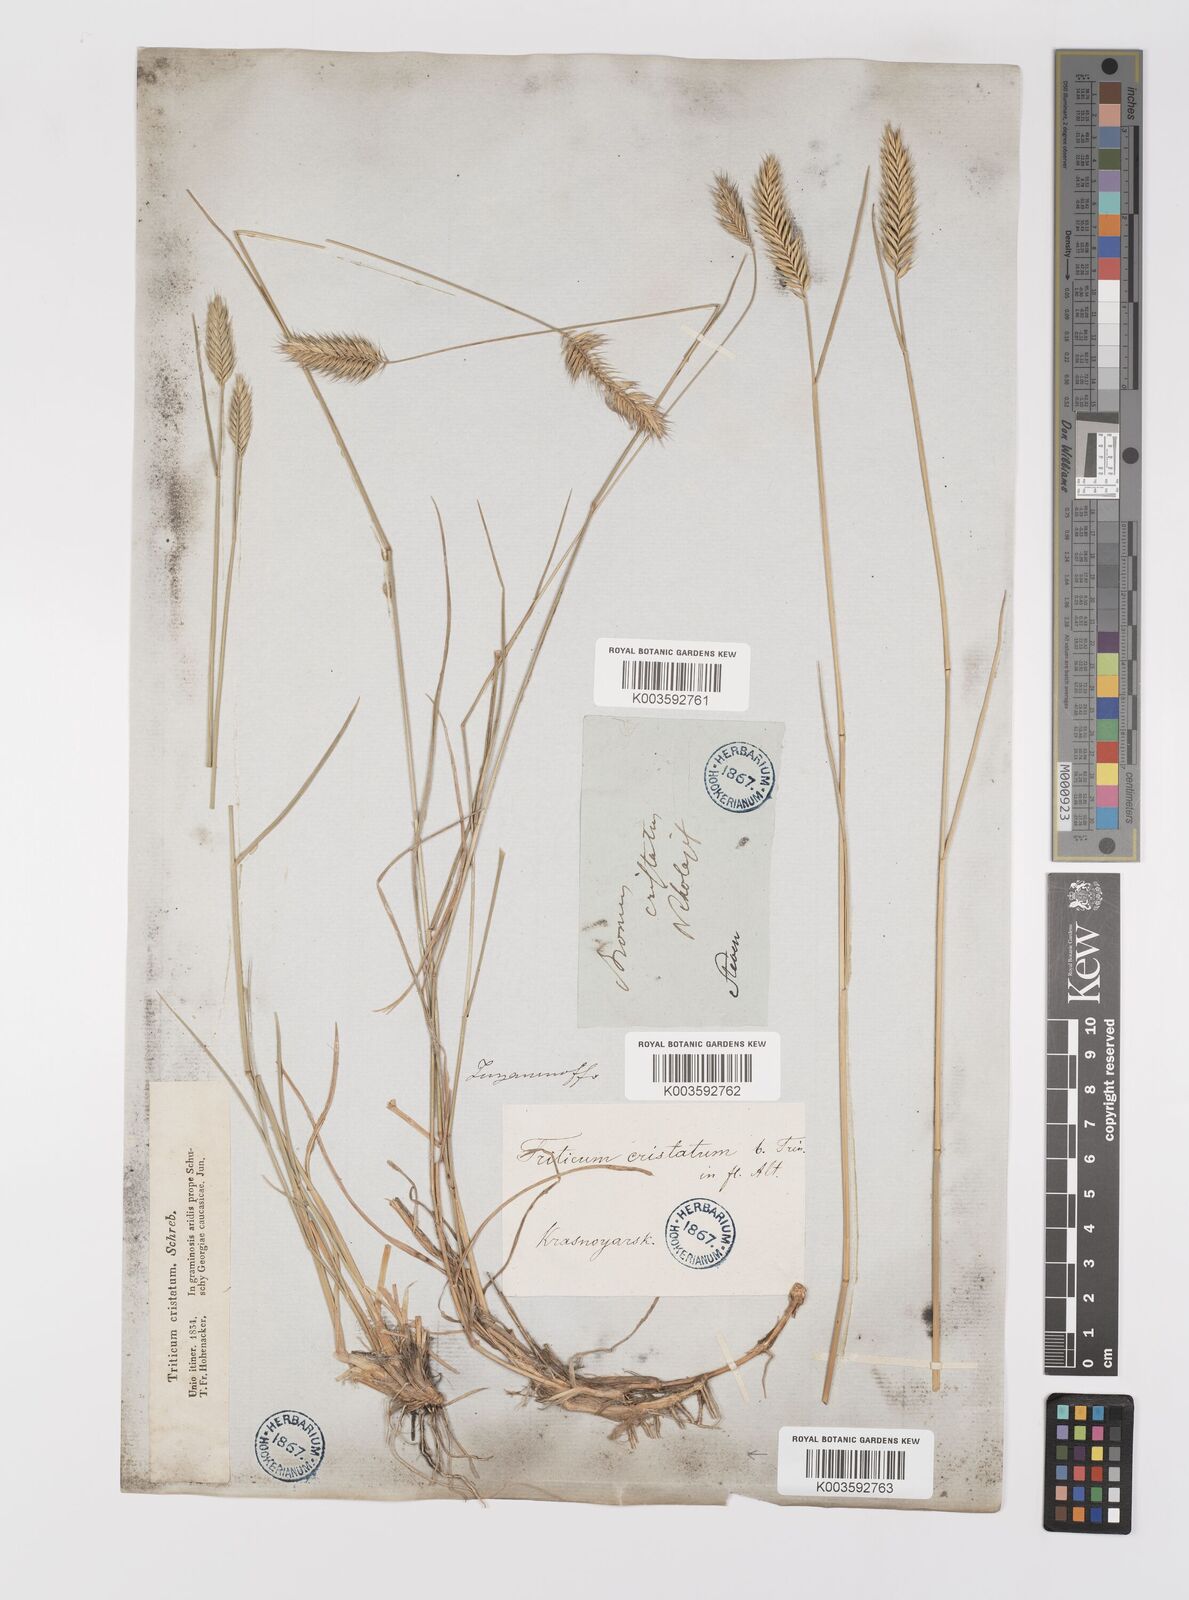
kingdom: Plantae
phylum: Tracheophyta
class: Liliopsida
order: Poales
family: Poaceae
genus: Agropyron
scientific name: Agropyron cristatum
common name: Crested wheatgrass
